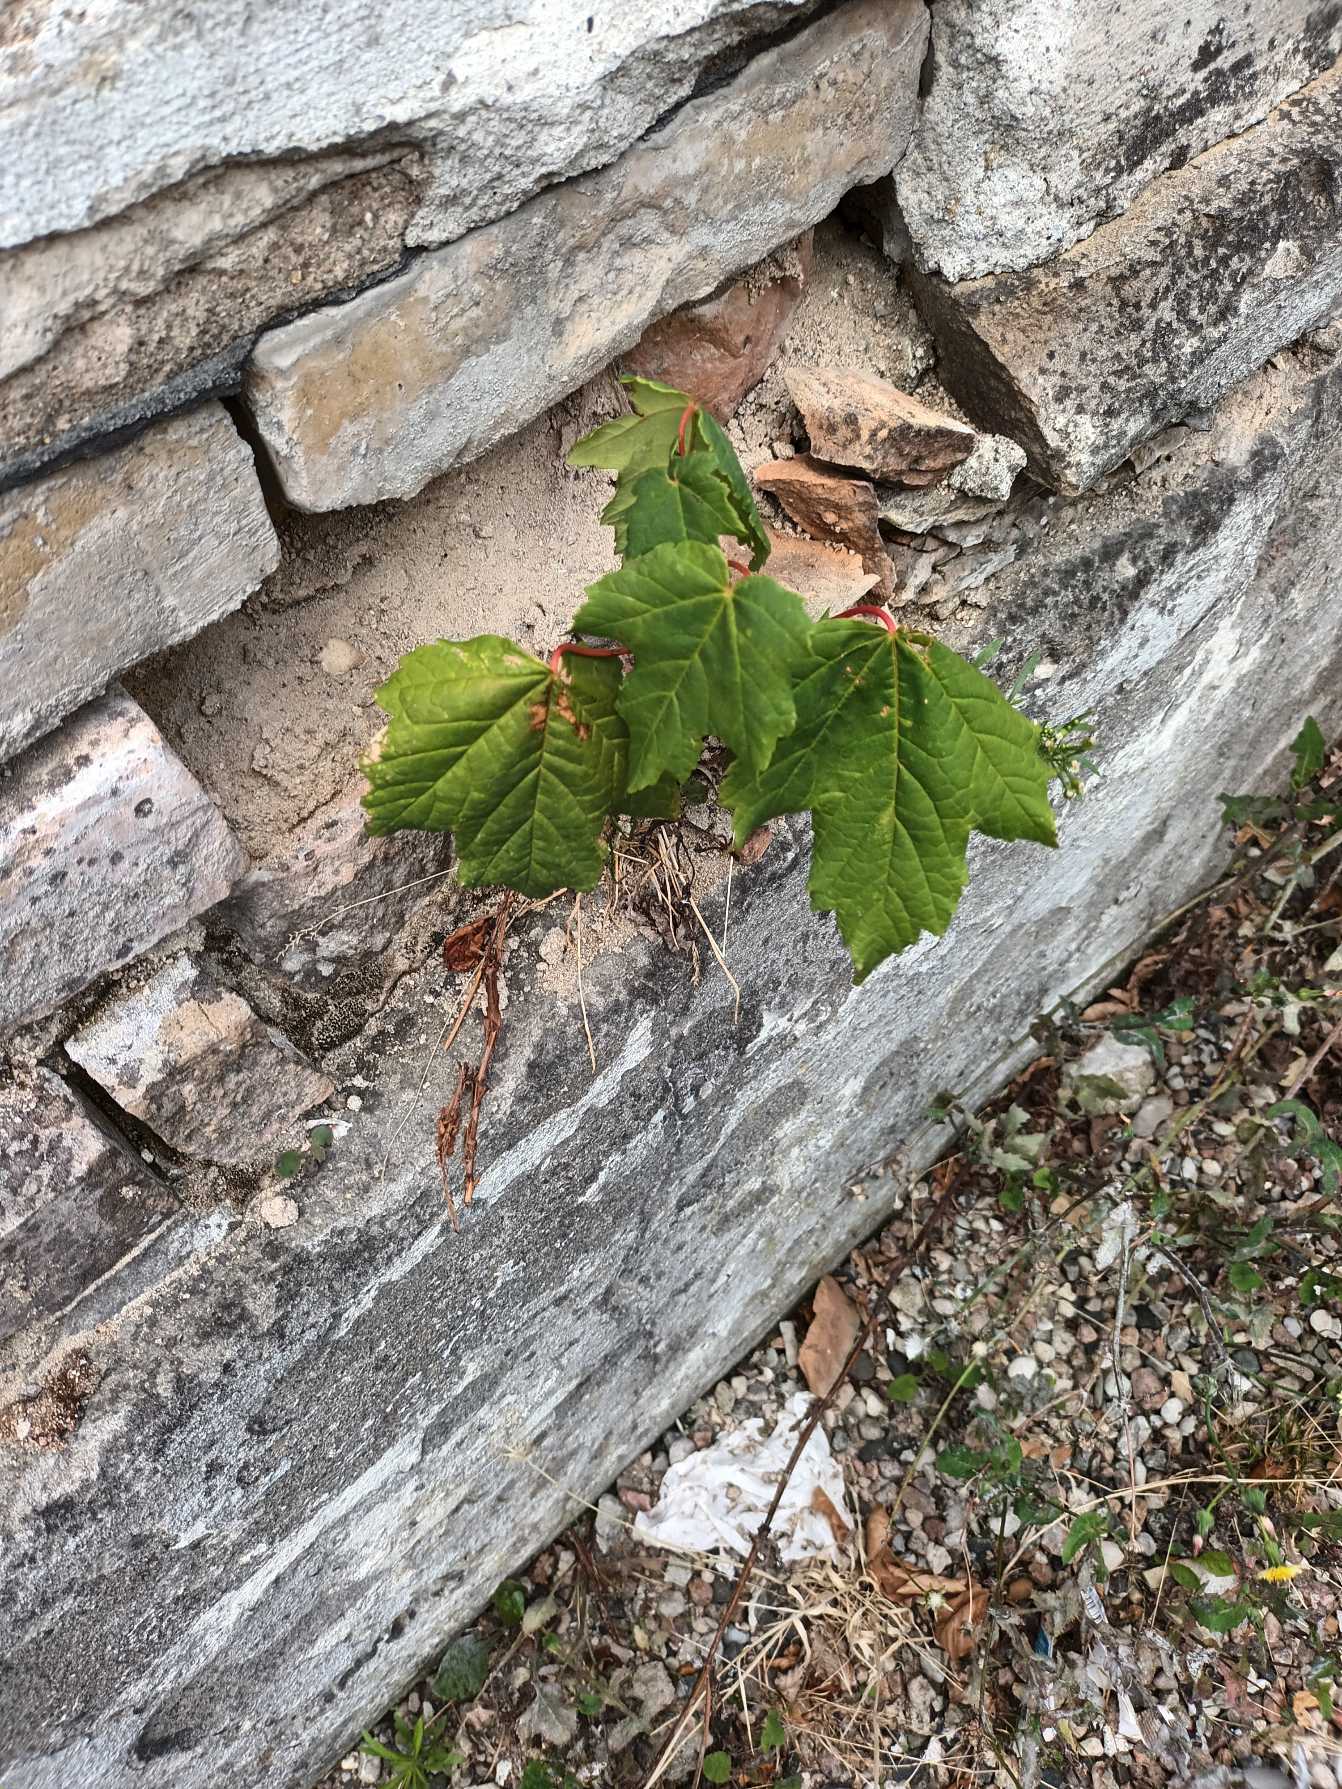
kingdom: Plantae
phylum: Tracheophyta
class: Magnoliopsida
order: Sapindales
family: Sapindaceae
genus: Acer
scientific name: Acer pseudoplatanus
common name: Ahorn
